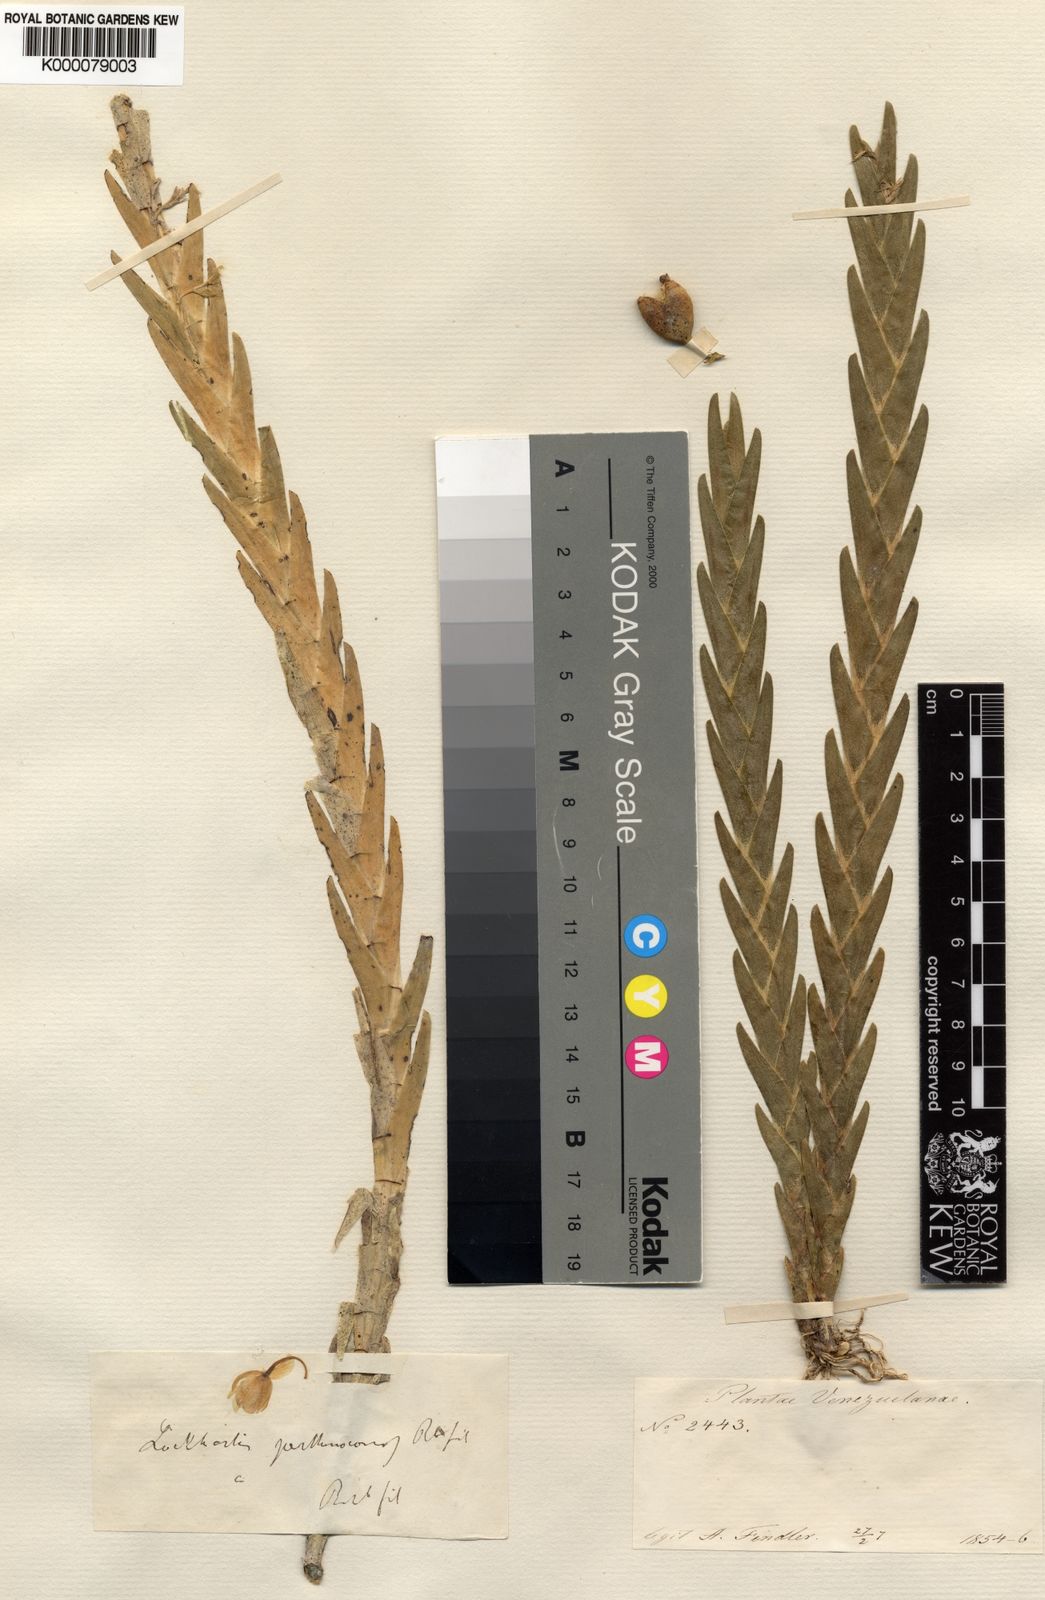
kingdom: Plantae
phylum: Tracheophyta
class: Liliopsida
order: Asparagales
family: Orchidaceae
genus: Lockhartia
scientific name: Lockhartia
